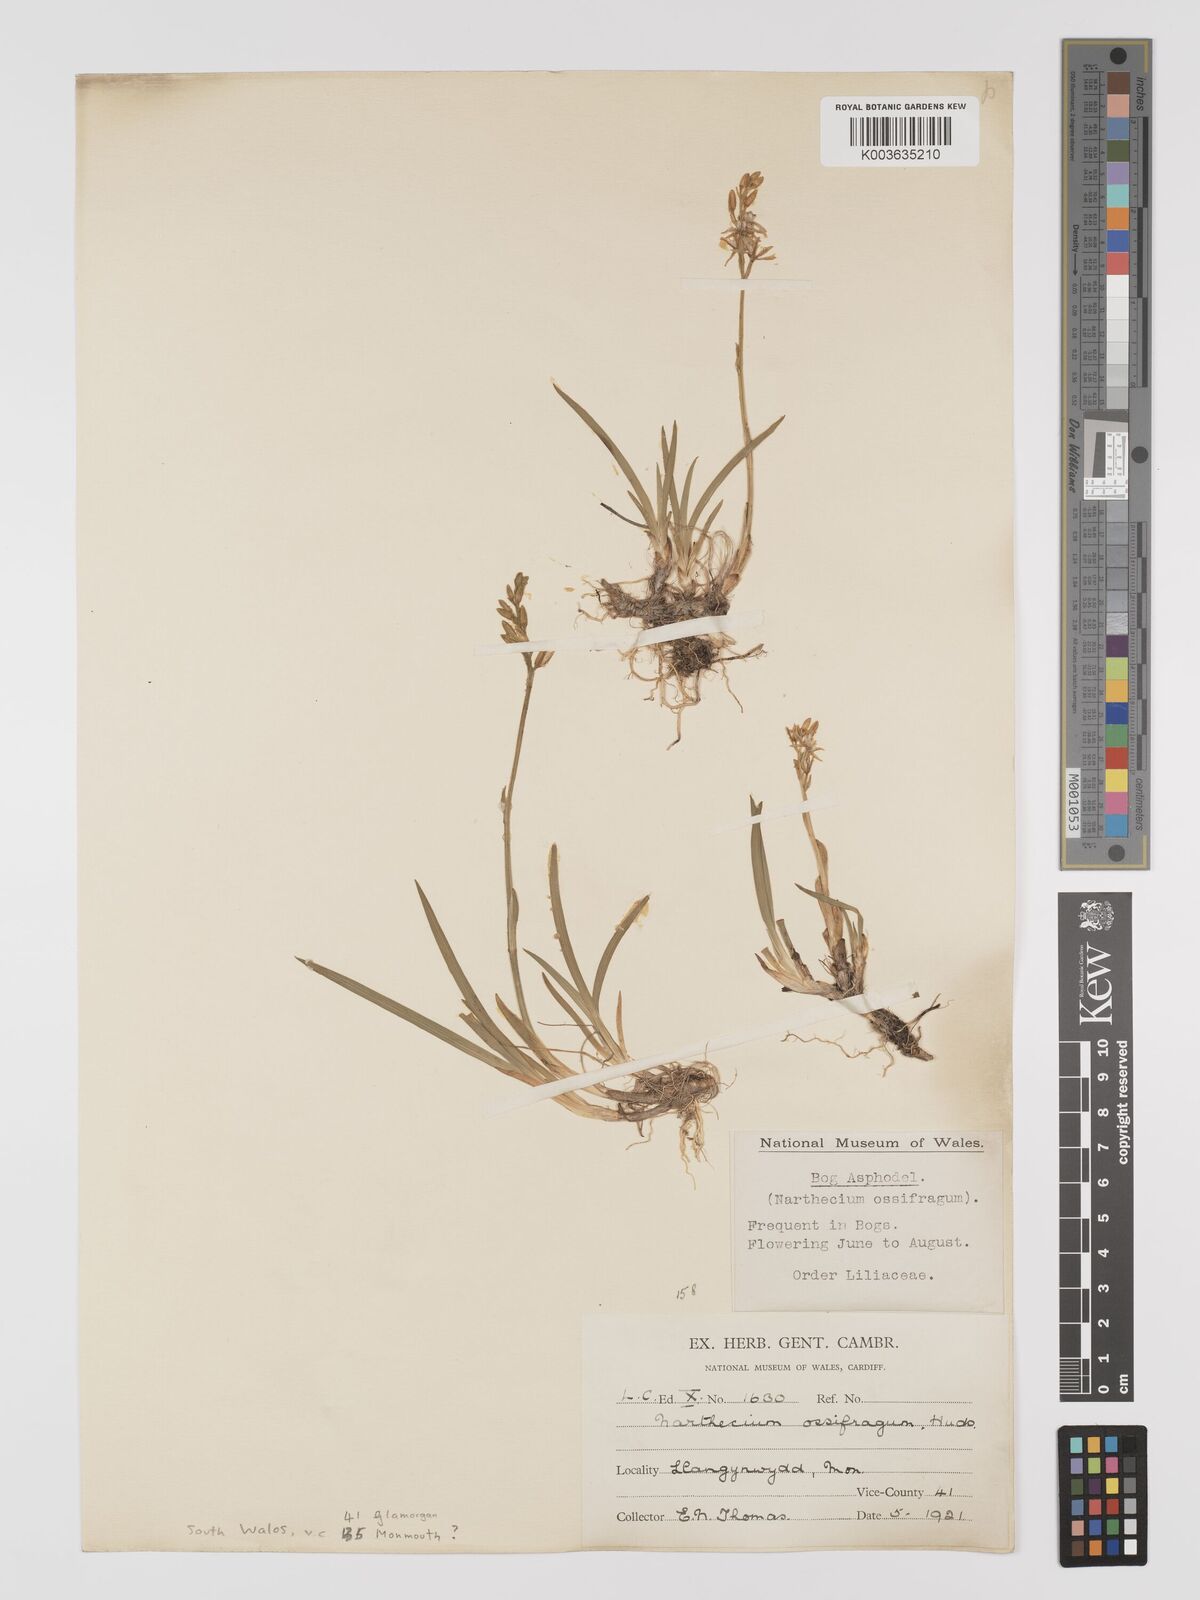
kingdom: Plantae
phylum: Tracheophyta
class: Liliopsida
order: Dioscoreales
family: Nartheciaceae
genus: Narthecium
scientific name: Narthecium
